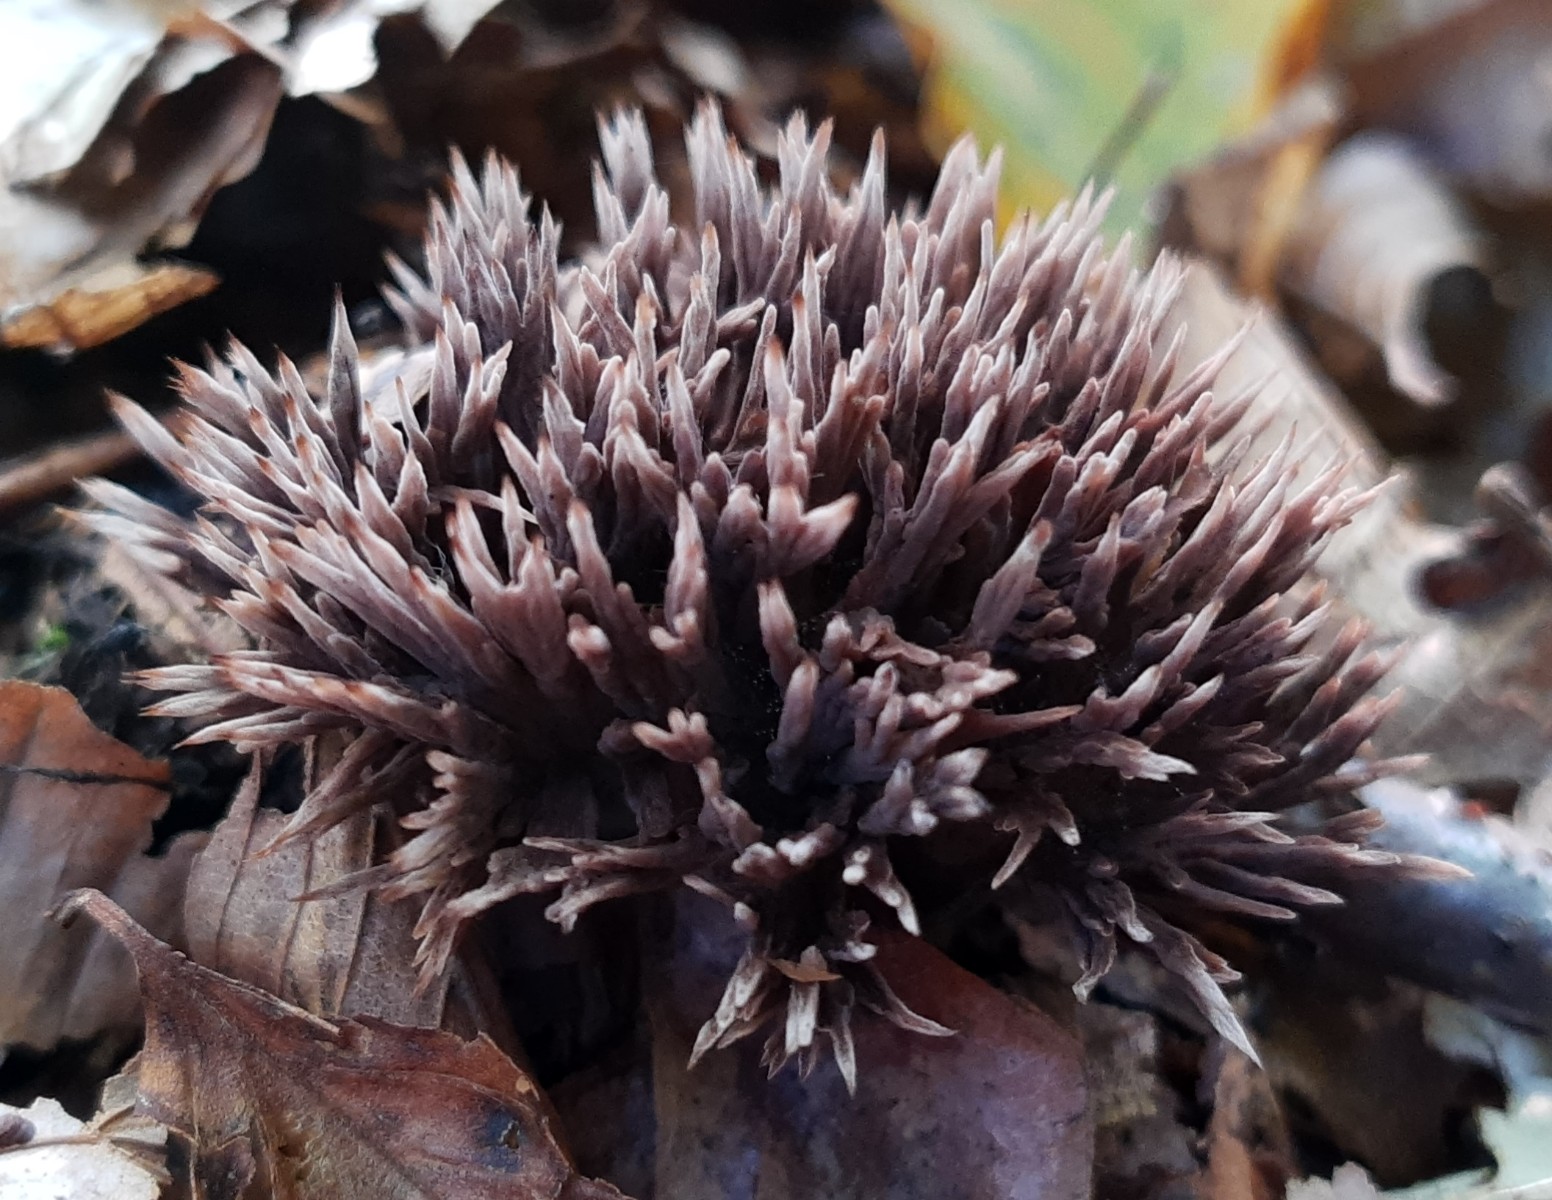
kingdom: Fungi
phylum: Basidiomycota
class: Agaricomycetes
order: Thelephorales
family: Thelephoraceae
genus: Thelephora
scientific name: Thelephora anthocephala
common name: busk-frynsesvamp
